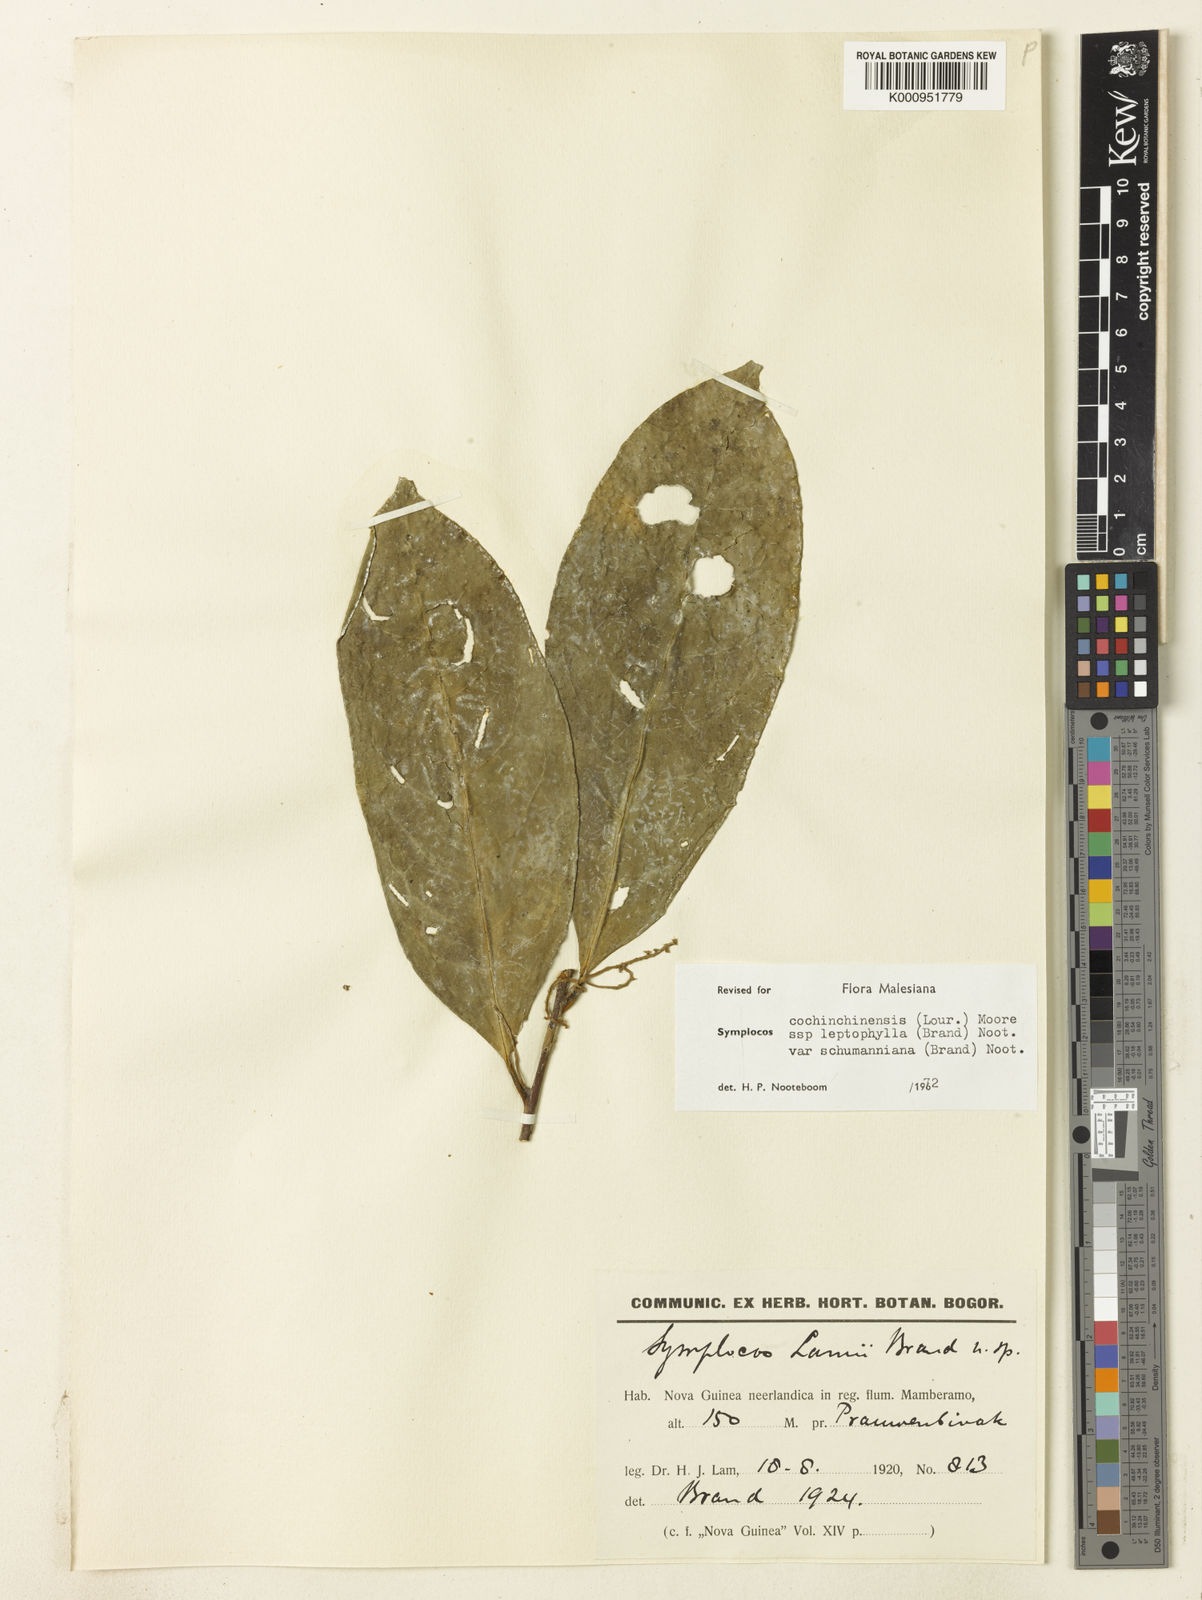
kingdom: Plantae
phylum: Tracheophyta
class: Magnoliopsida
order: Ericales
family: Symplocaceae
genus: Symplocos
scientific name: Symplocos cochinchinensis
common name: Buff hazelwood
